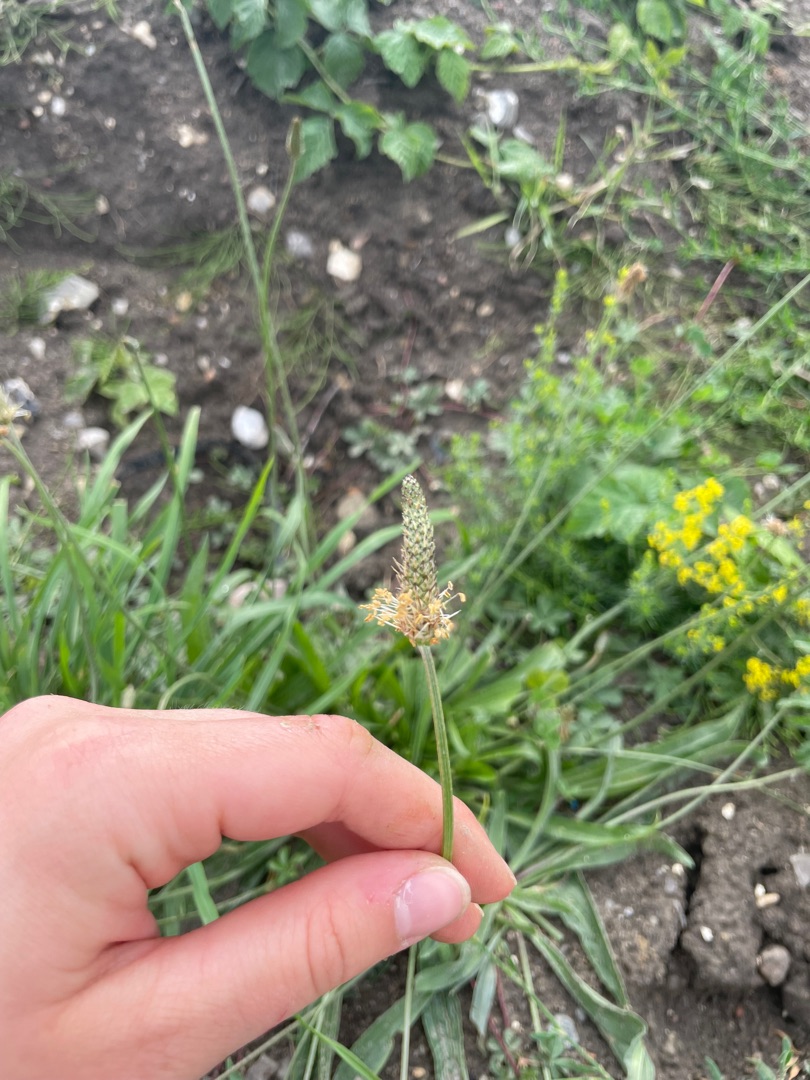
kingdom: Plantae
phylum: Tracheophyta
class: Magnoliopsida
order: Lamiales
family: Plantaginaceae
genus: Plantago
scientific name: Plantago lanceolata
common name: Lancet-vejbred
